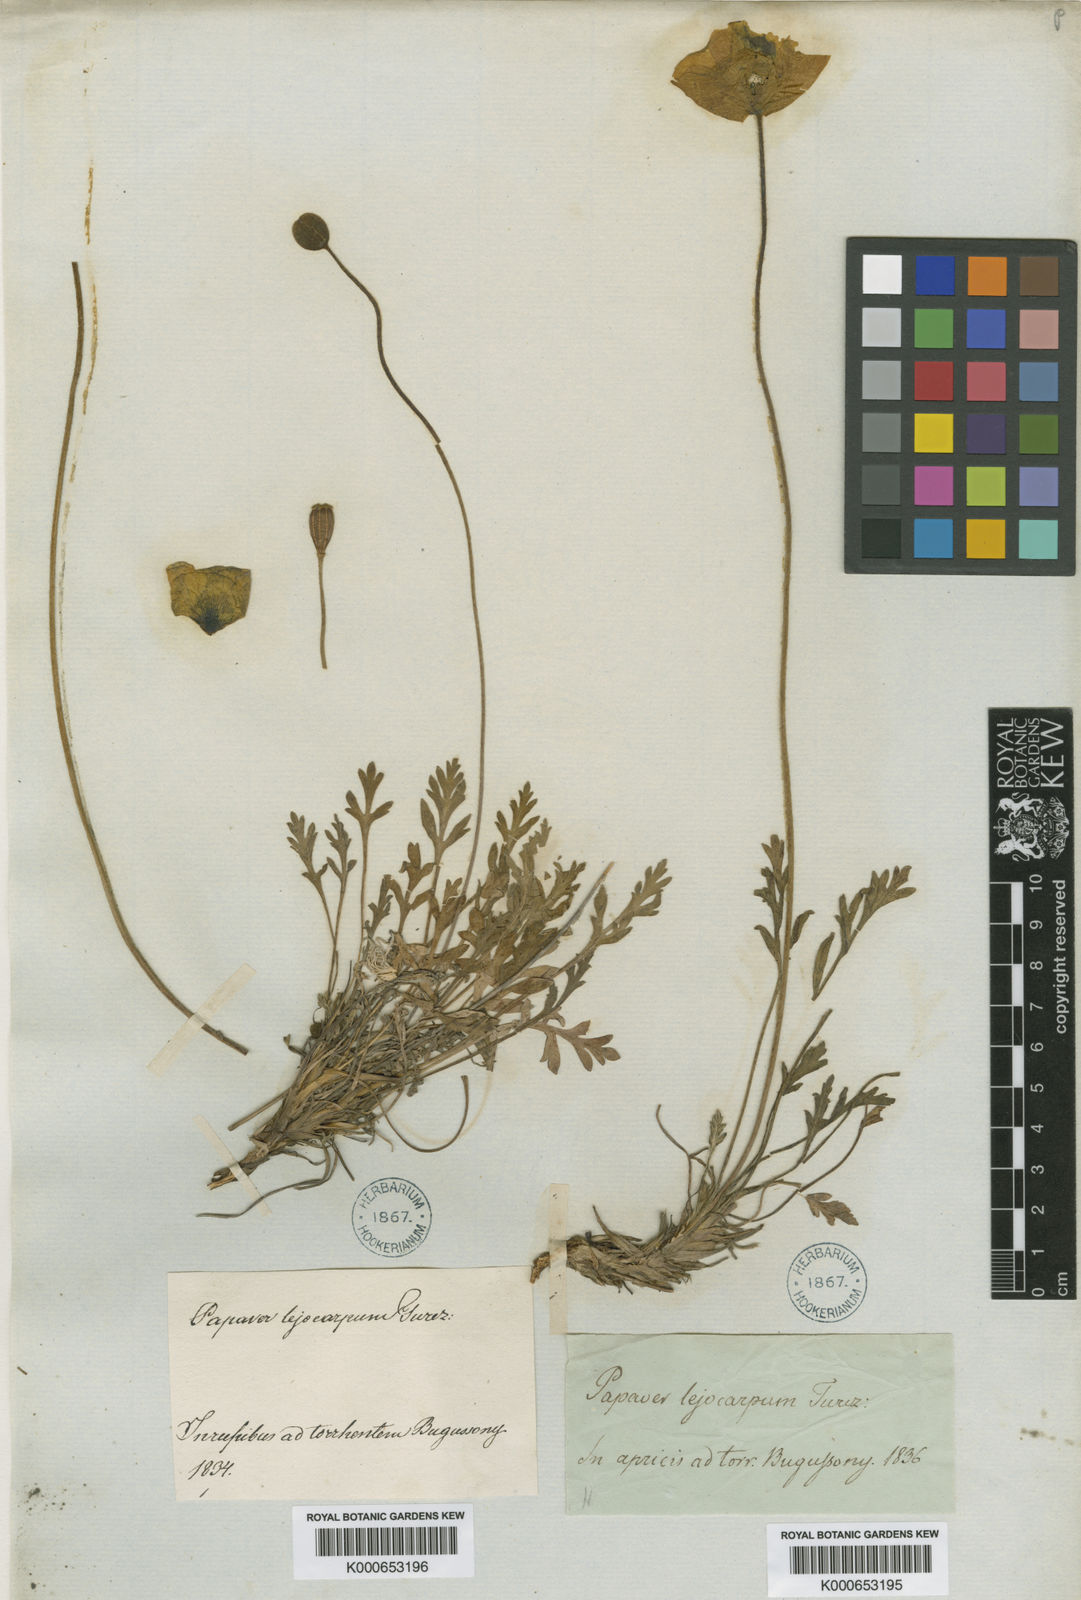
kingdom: Plantae
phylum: Tracheophyta
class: Magnoliopsida
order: Ranunculales
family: Papaveraceae
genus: Papaver
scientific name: Papaver leiocarpum
